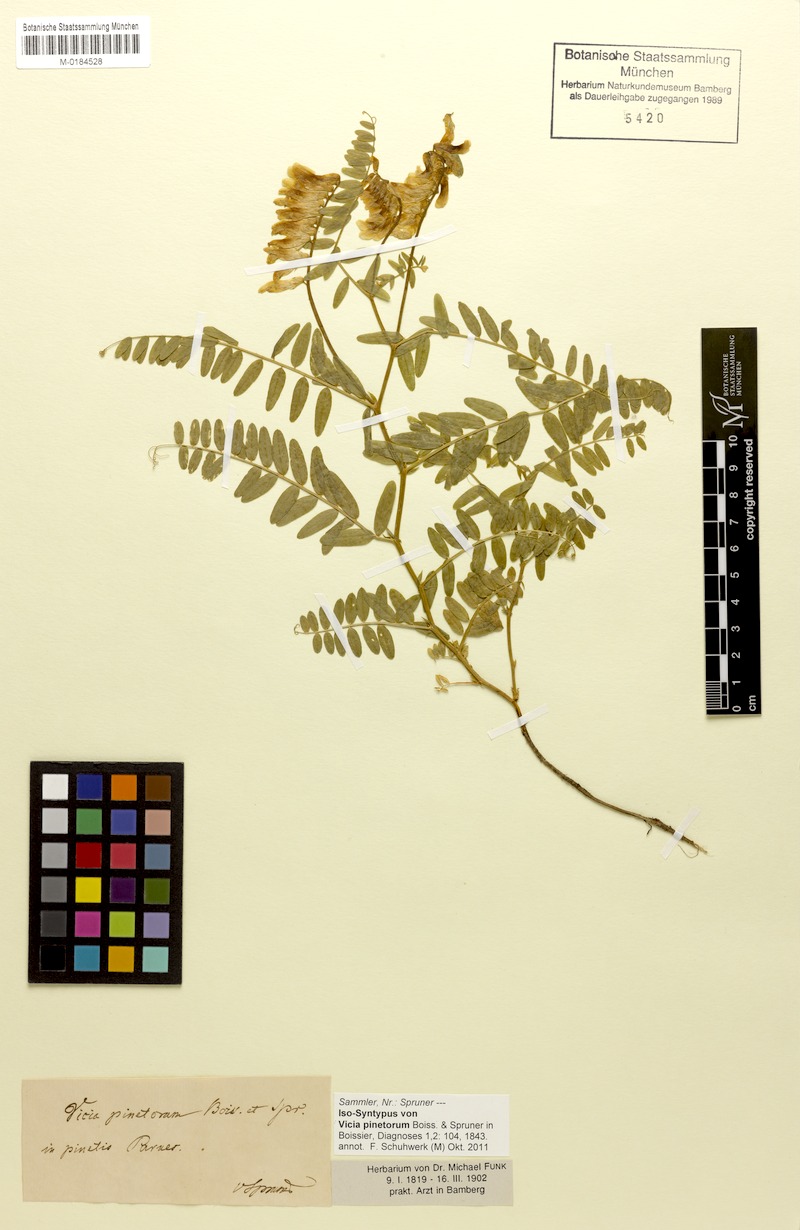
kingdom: Plantae
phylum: Tracheophyta
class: Magnoliopsida
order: Fabales
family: Fabaceae
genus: Vicia
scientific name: Vicia pinetorum
